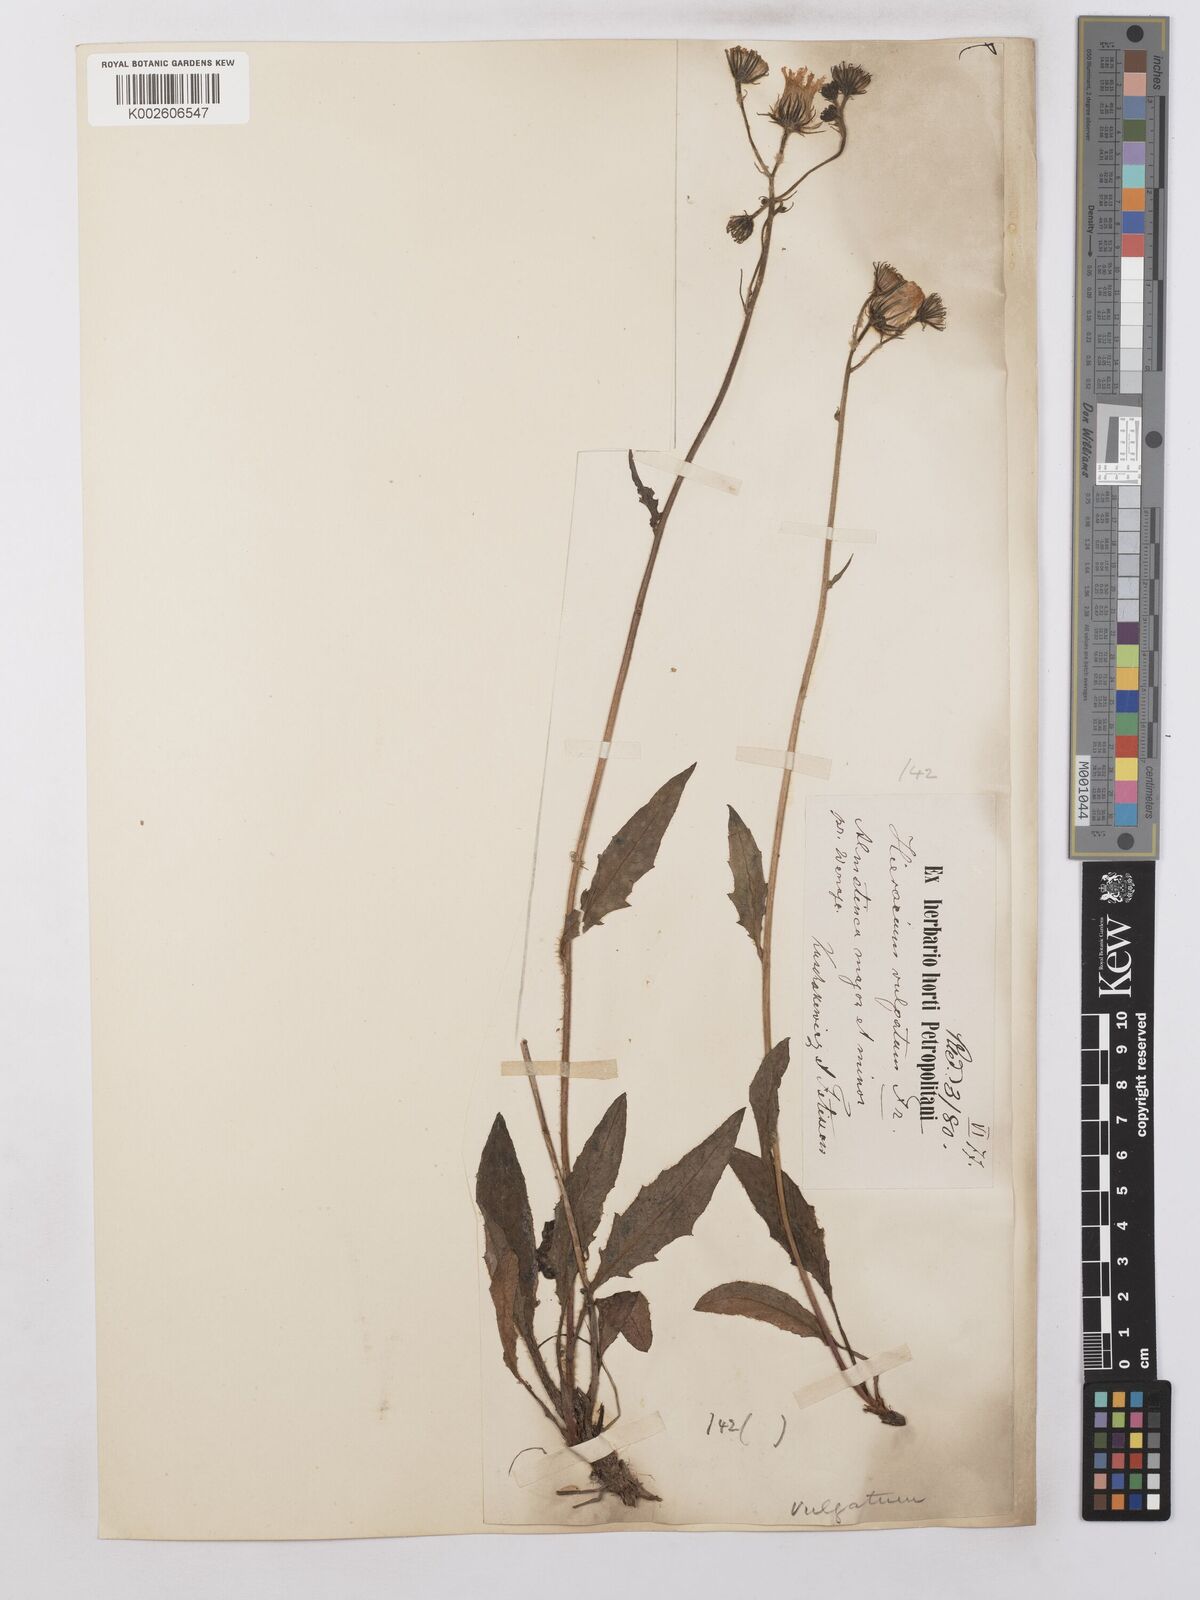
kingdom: Plantae
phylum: Tracheophyta
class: Magnoliopsida
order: Asterales
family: Asteraceae
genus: Hieracium
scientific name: Hieracium lachenalii
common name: Common hawkweed
